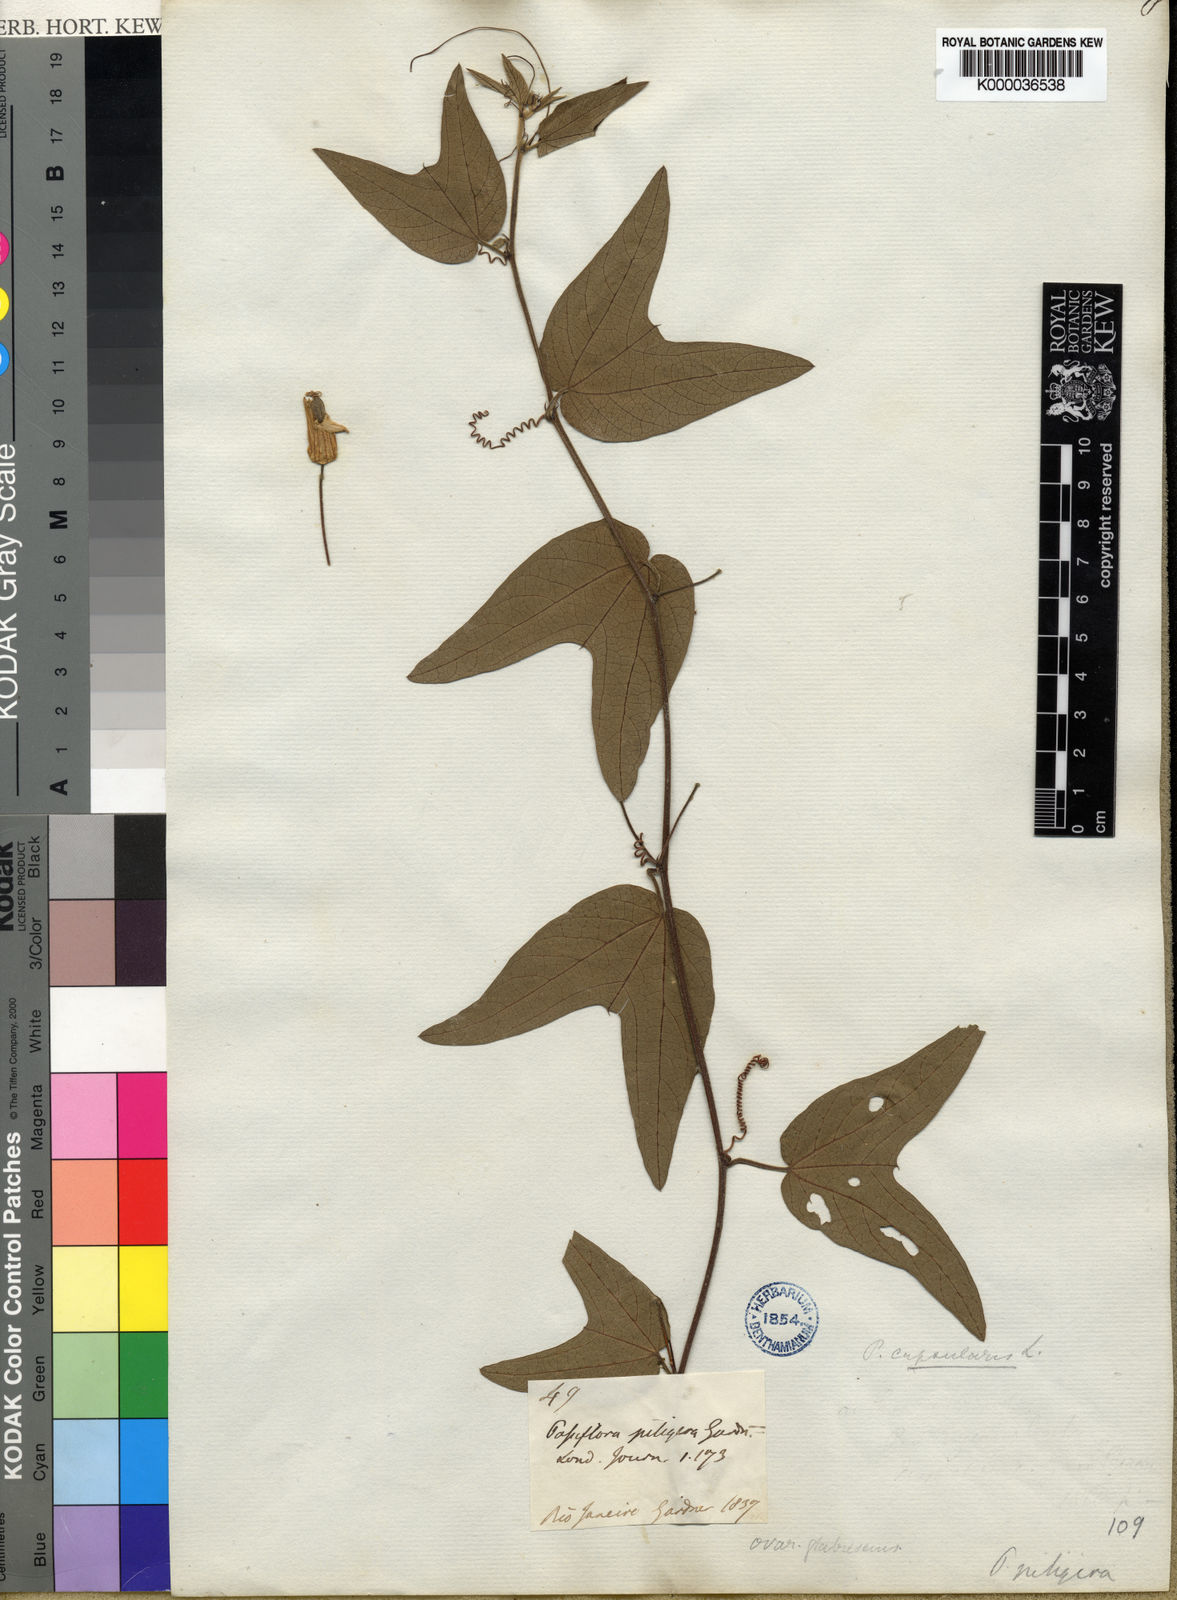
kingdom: Plantae
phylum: Tracheophyta
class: Magnoliopsida
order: Malpighiales
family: Passifloraceae
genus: Passiflora
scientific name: Passiflora capsularis
